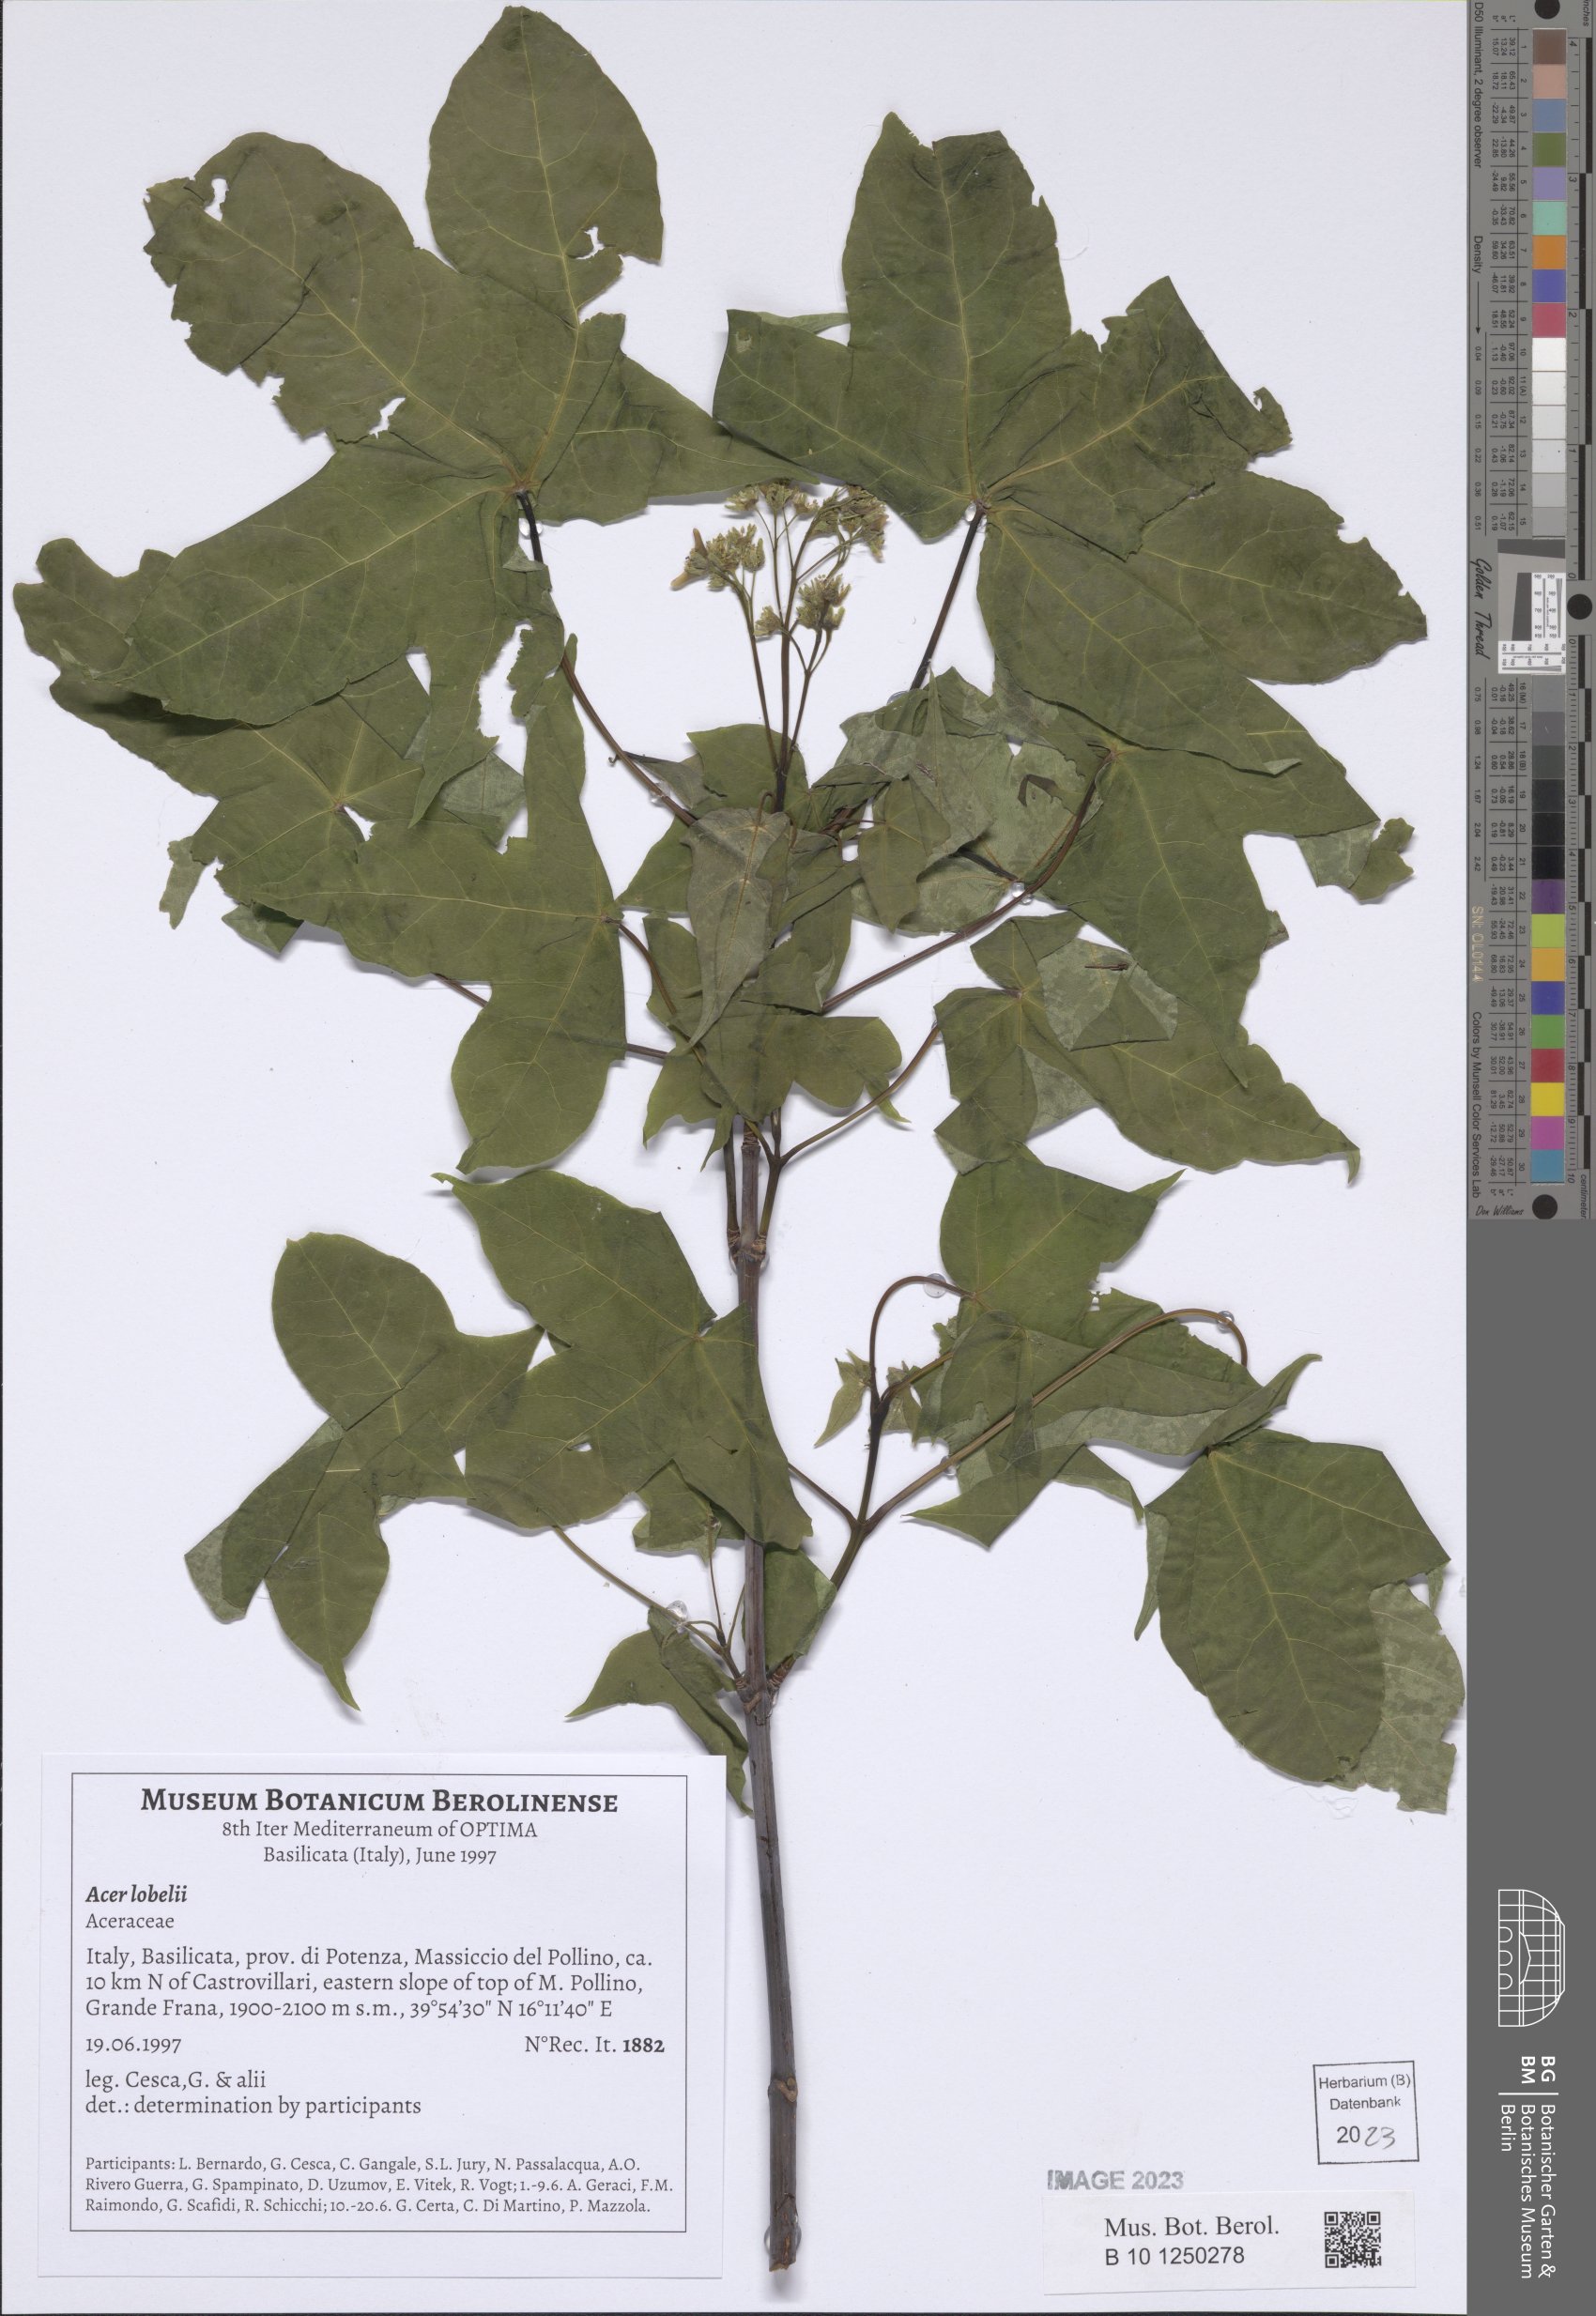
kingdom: Plantae
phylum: Tracheophyta
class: Magnoliopsida
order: Sapindales
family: Sapindaceae
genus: Acer
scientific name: Acer lobelii
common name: Lobel's maple
